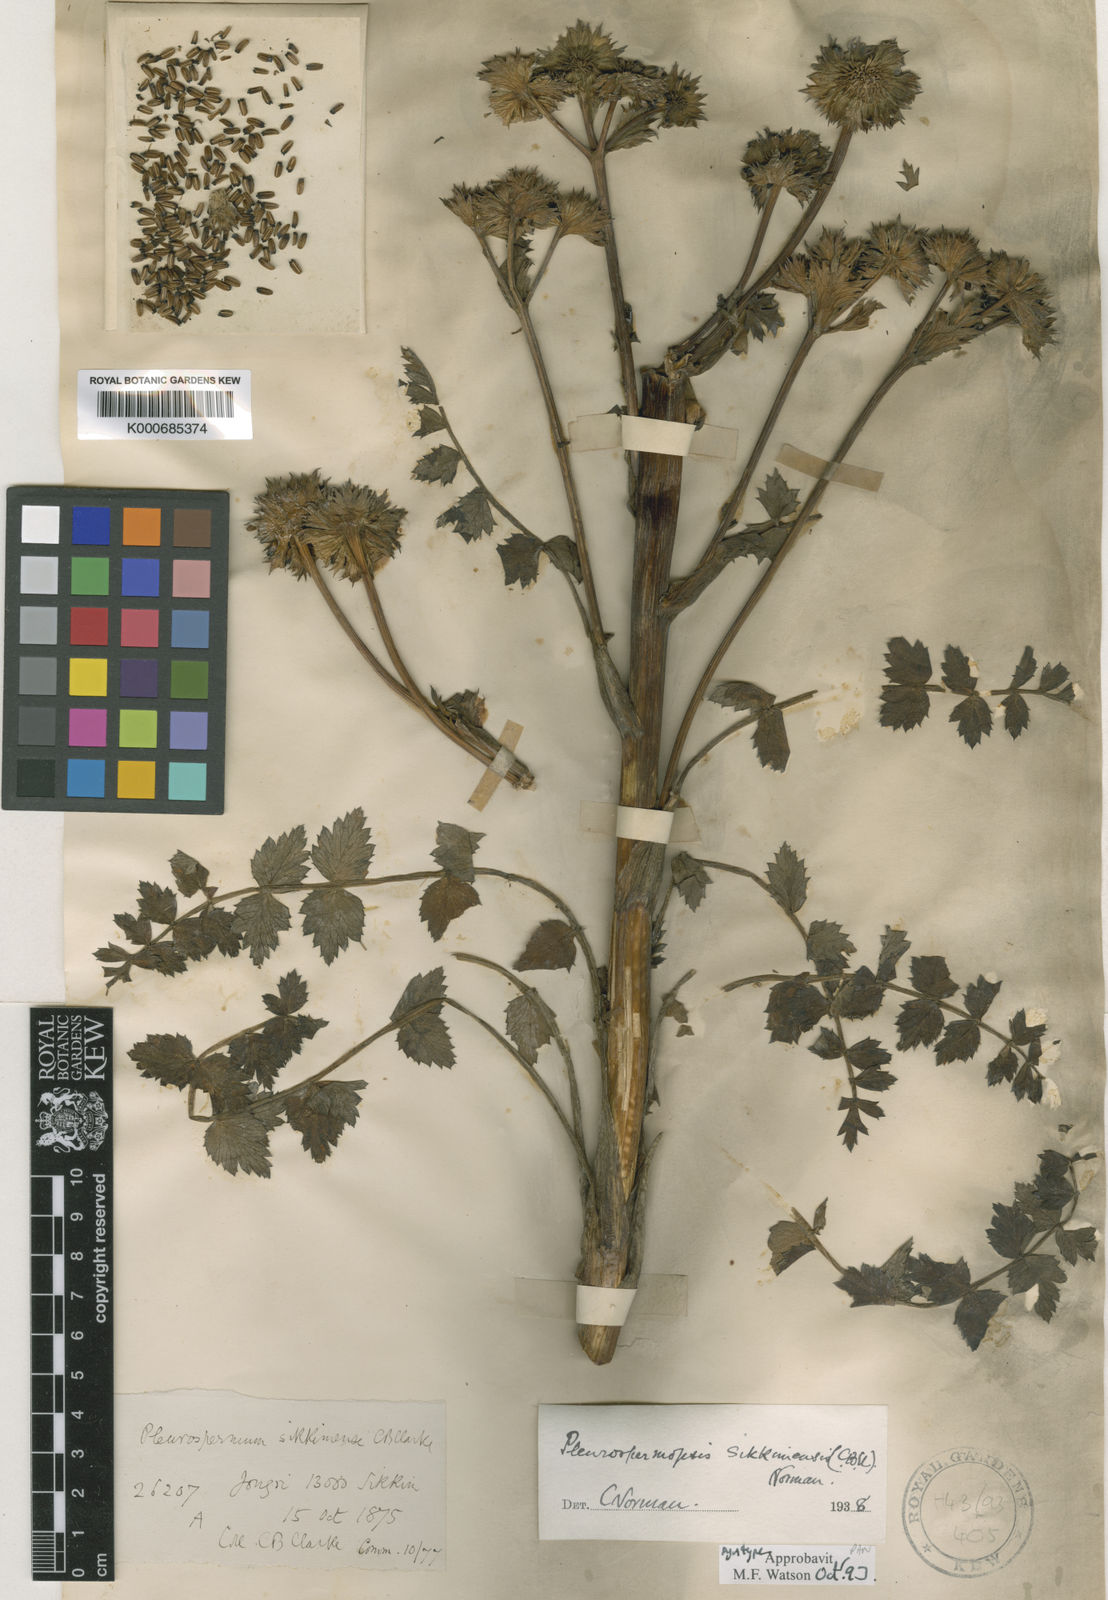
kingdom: Plantae
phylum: Tracheophyta
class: Magnoliopsida
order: Apiales
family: Apiaceae
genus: Pleurospermopsis
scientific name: Pleurospermopsis sikkimensis
